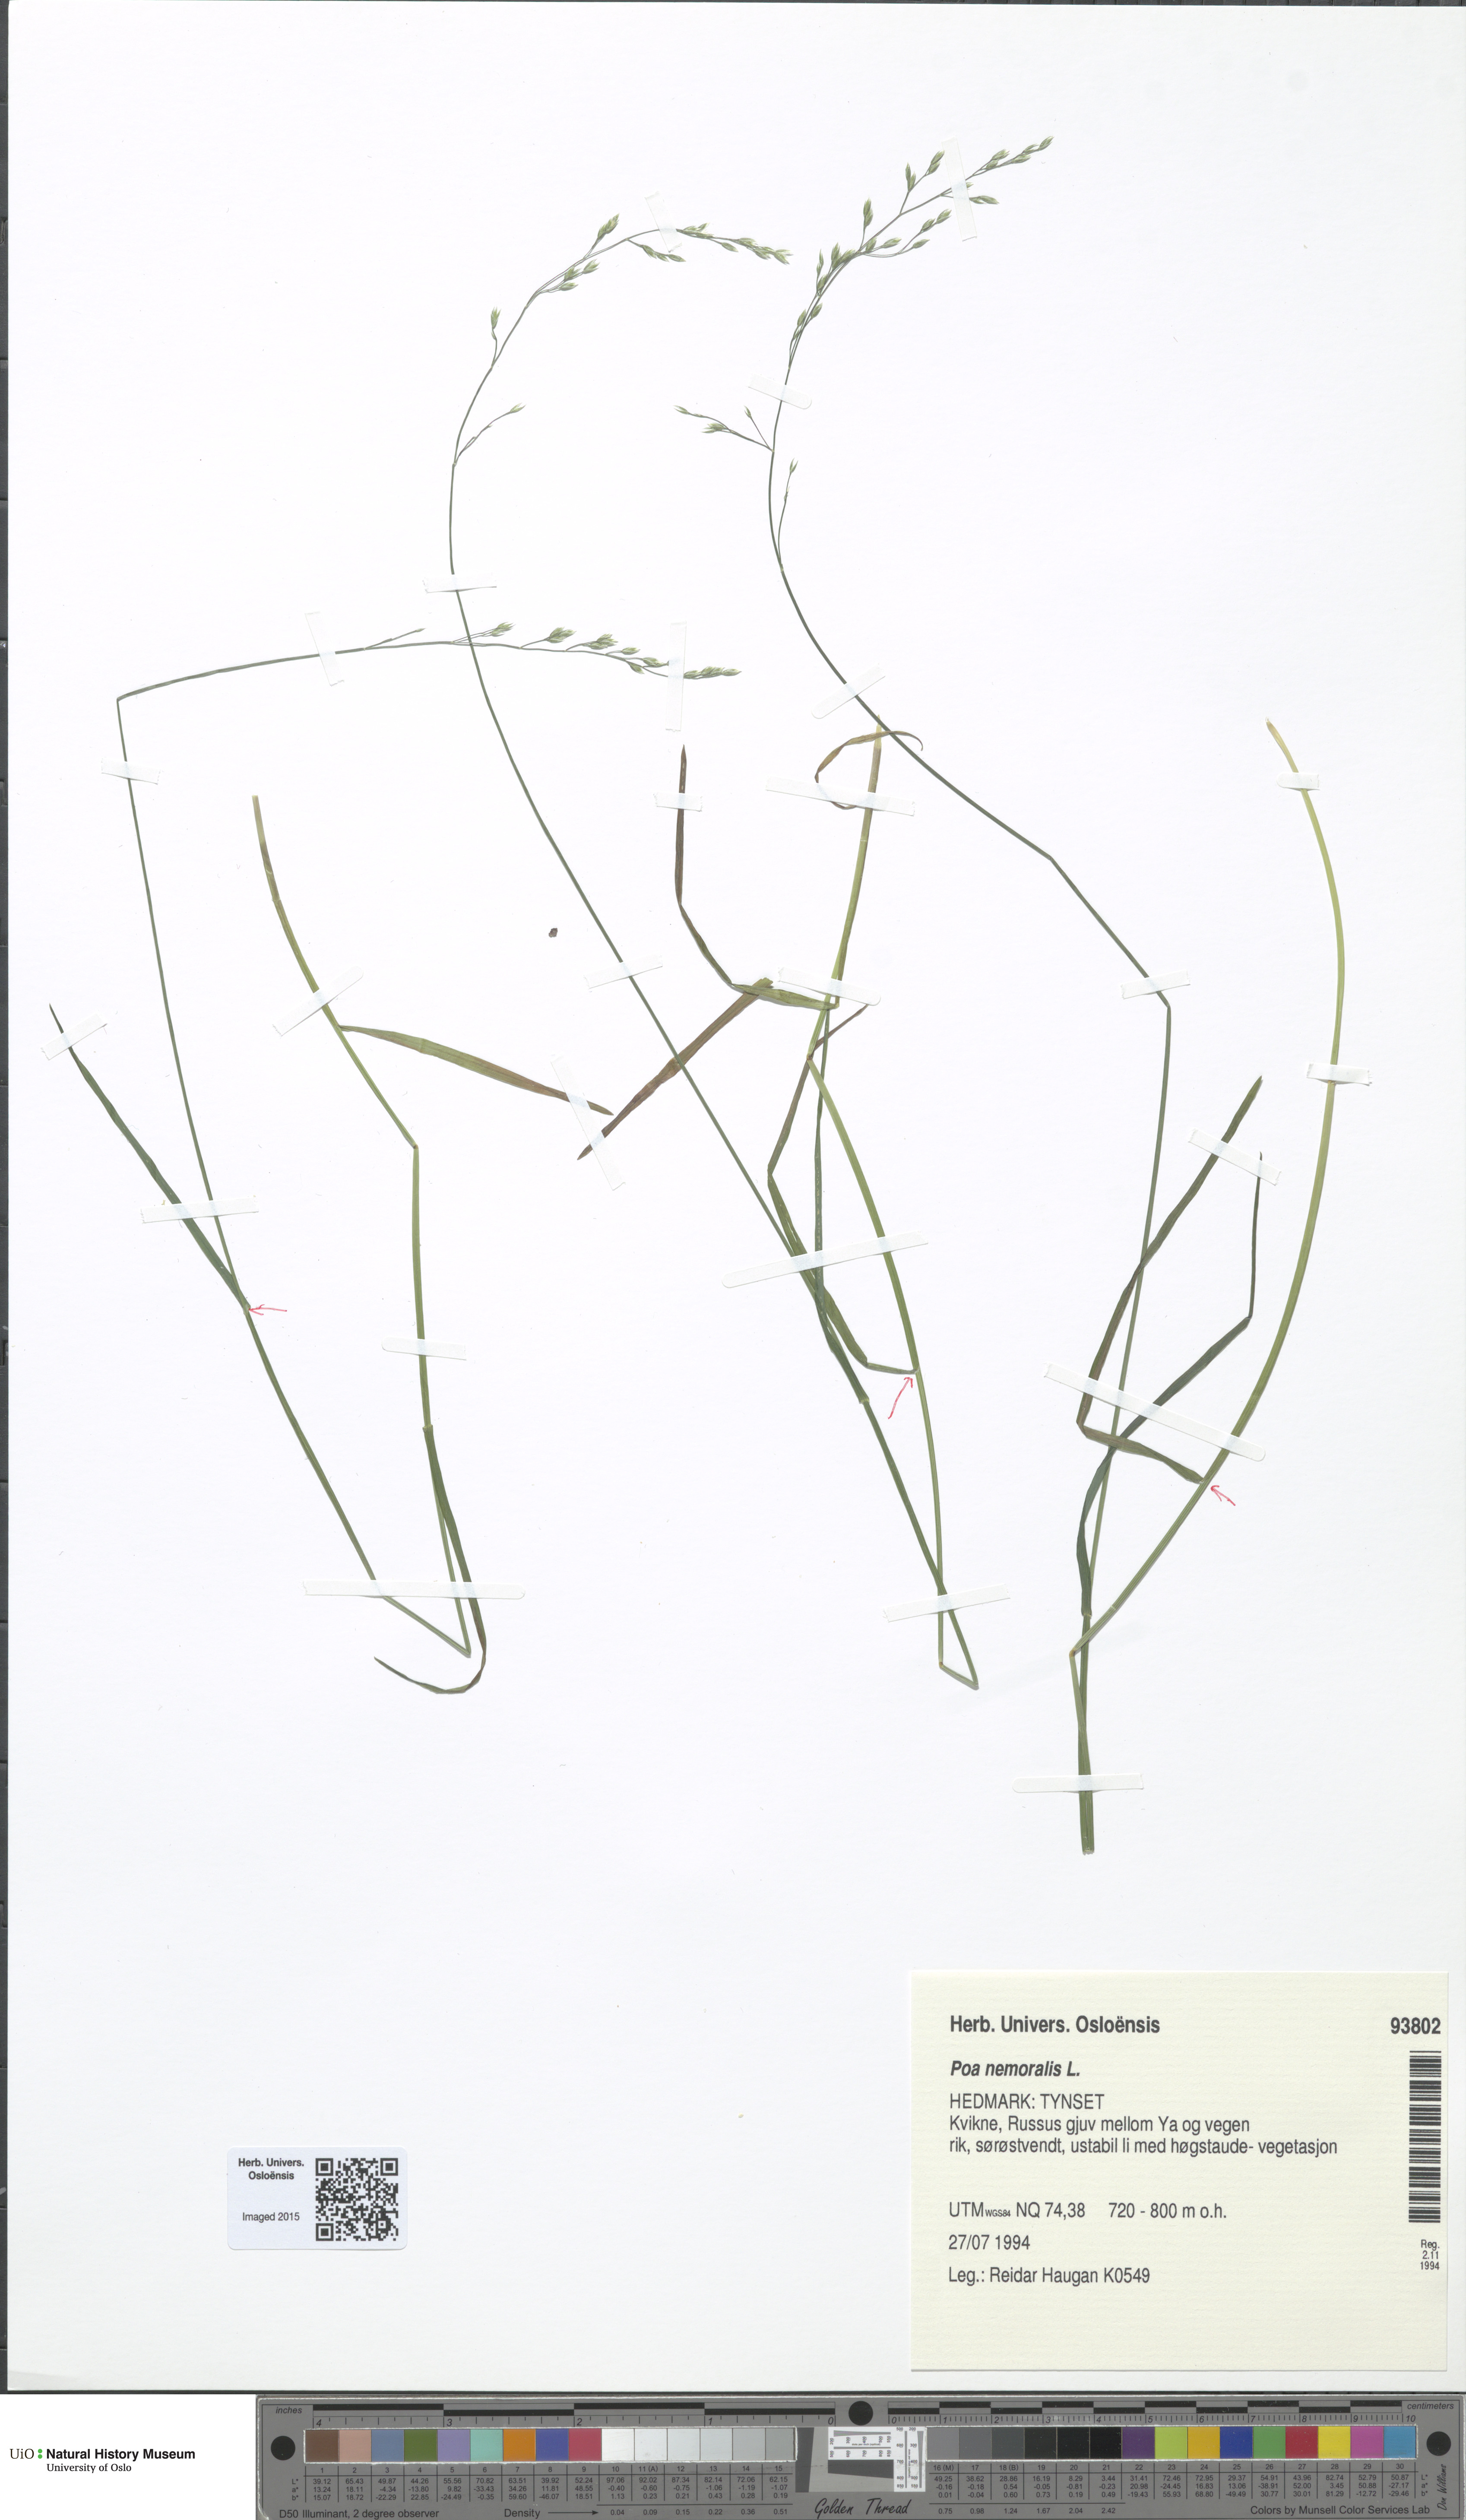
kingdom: Plantae
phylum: Tracheophyta
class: Liliopsida
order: Poales
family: Poaceae
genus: Poa
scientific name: Poa nemoralis
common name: Wood bluegrass
